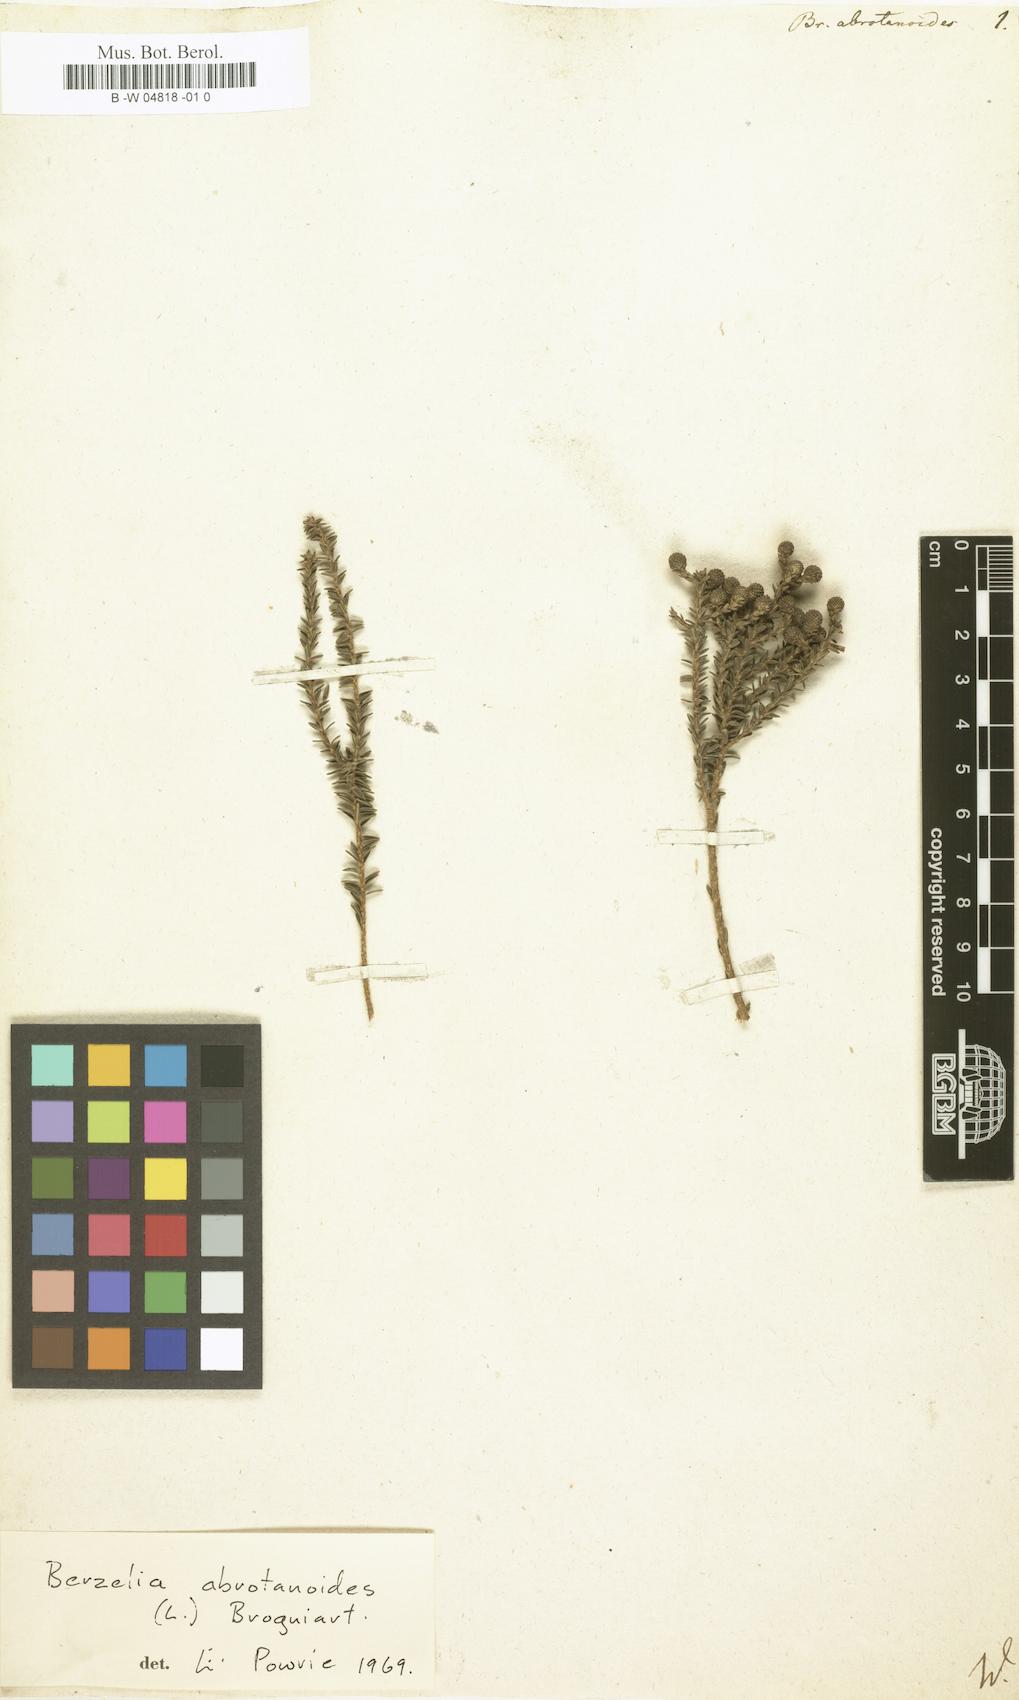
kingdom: Plantae
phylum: Tracheophyta
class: Magnoliopsida
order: Bruniales
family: Bruniaceae
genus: Berzelia
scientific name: Berzelia abrotanoides
